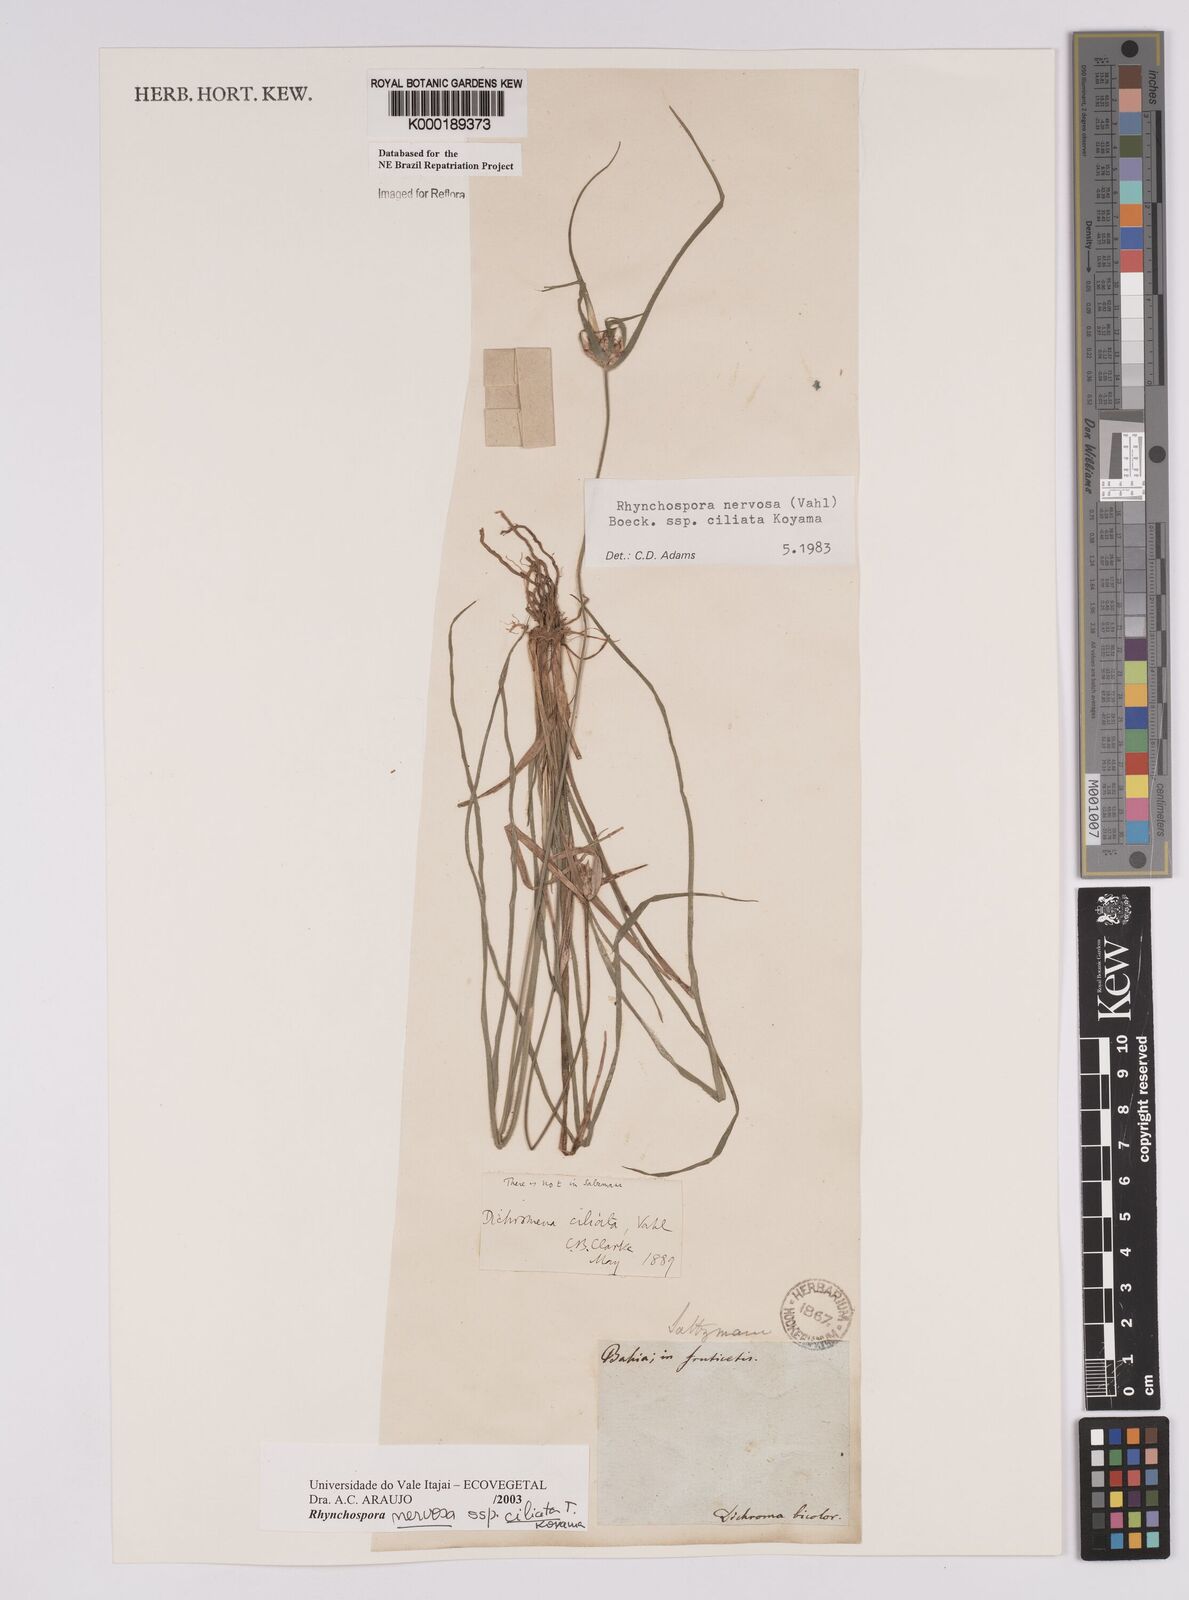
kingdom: Plantae
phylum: Tracheophyta
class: Liliopsida
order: Poales
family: Cyperaceae
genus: Rhynchospora
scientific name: Rhynchospora pura
